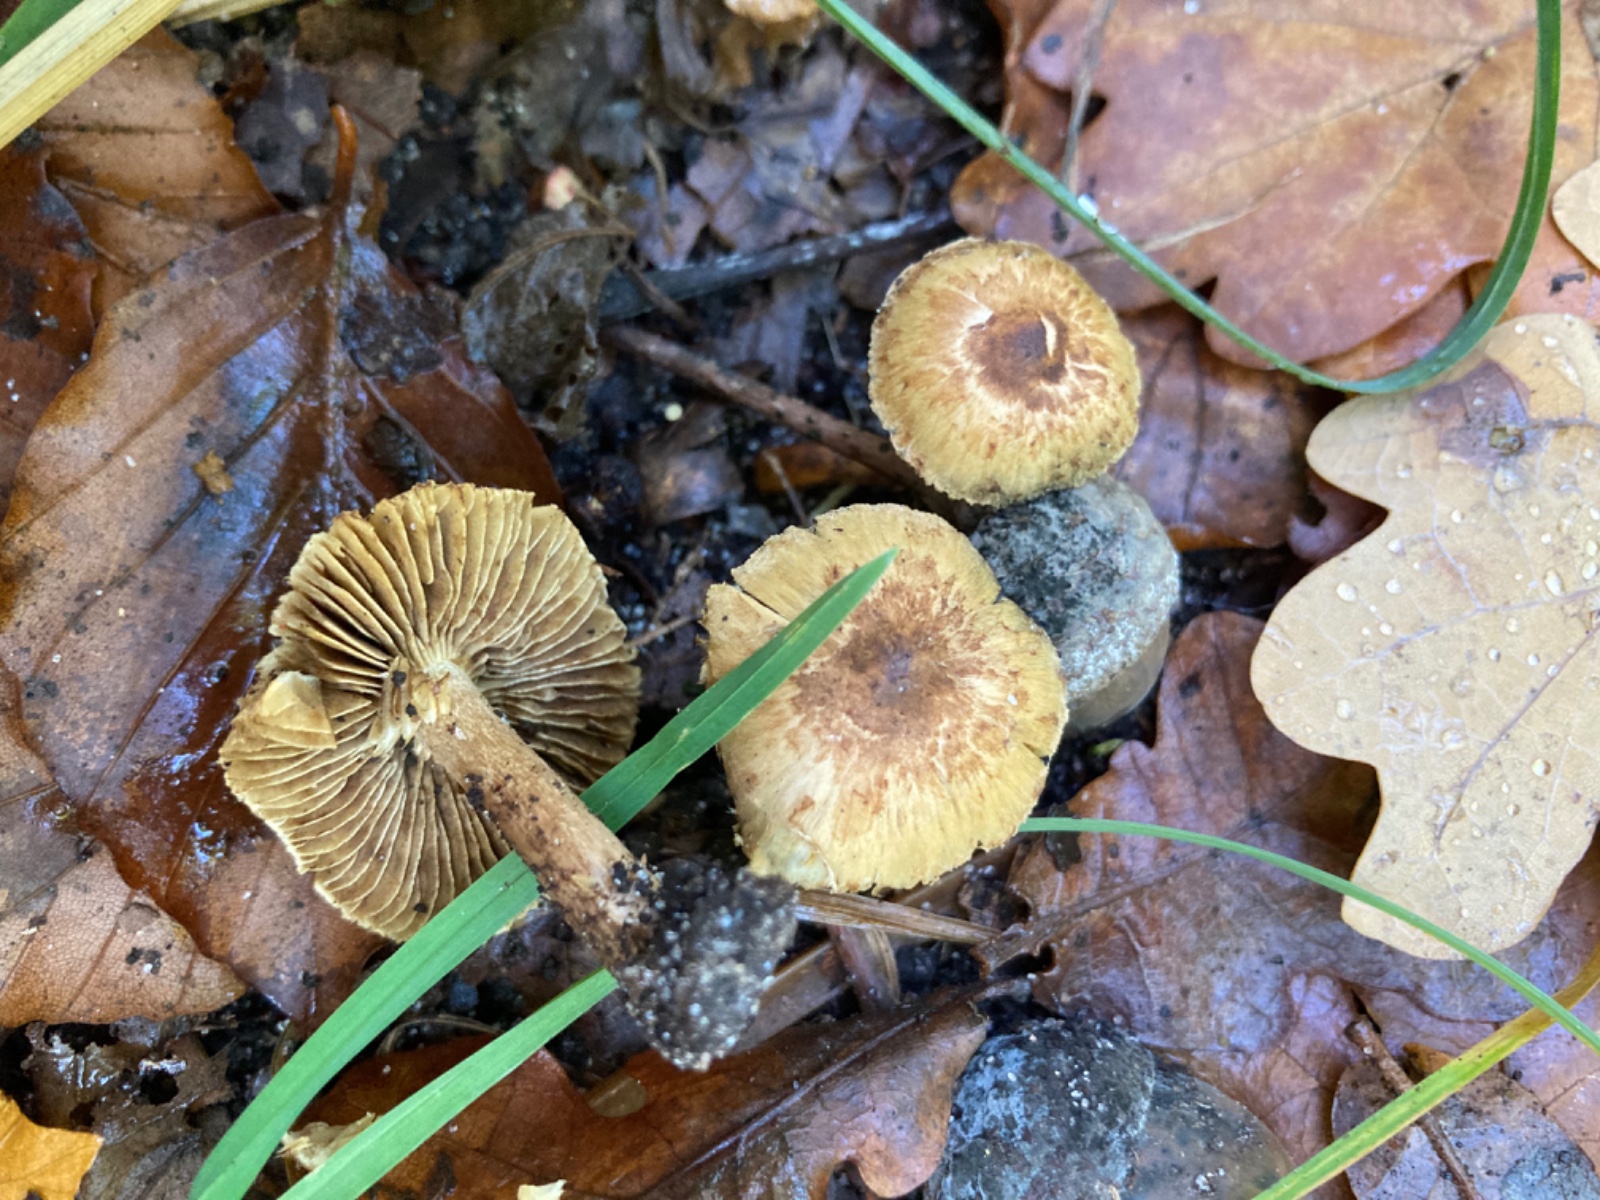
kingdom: Fungi
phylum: Basidiomycota
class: Agaricomycetes
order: Agaricales
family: Inocybaceae
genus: Inocybe
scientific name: Inocybe
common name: trævlhat
